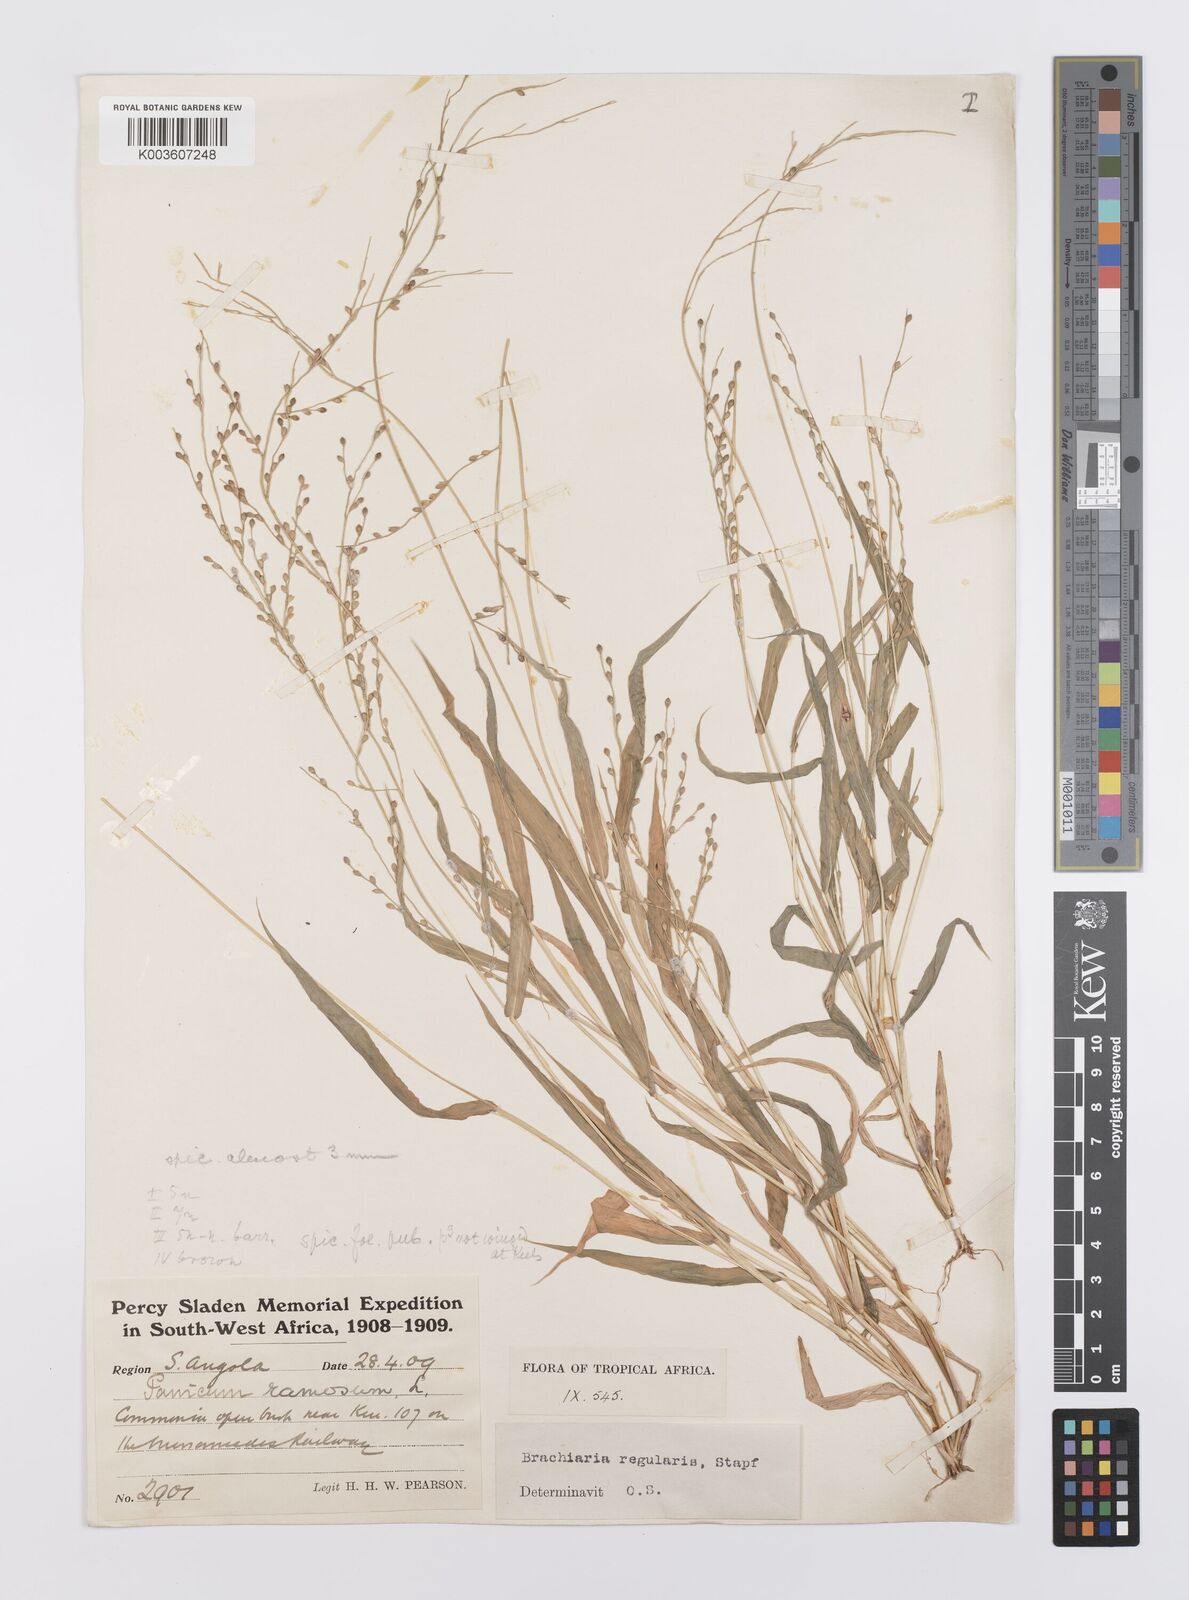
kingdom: Plantae
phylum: Tracheophyta
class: Liliopsida
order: Poales
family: Poaceae
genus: Urochloa
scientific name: Urochloa deflexa
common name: Guinea millet
